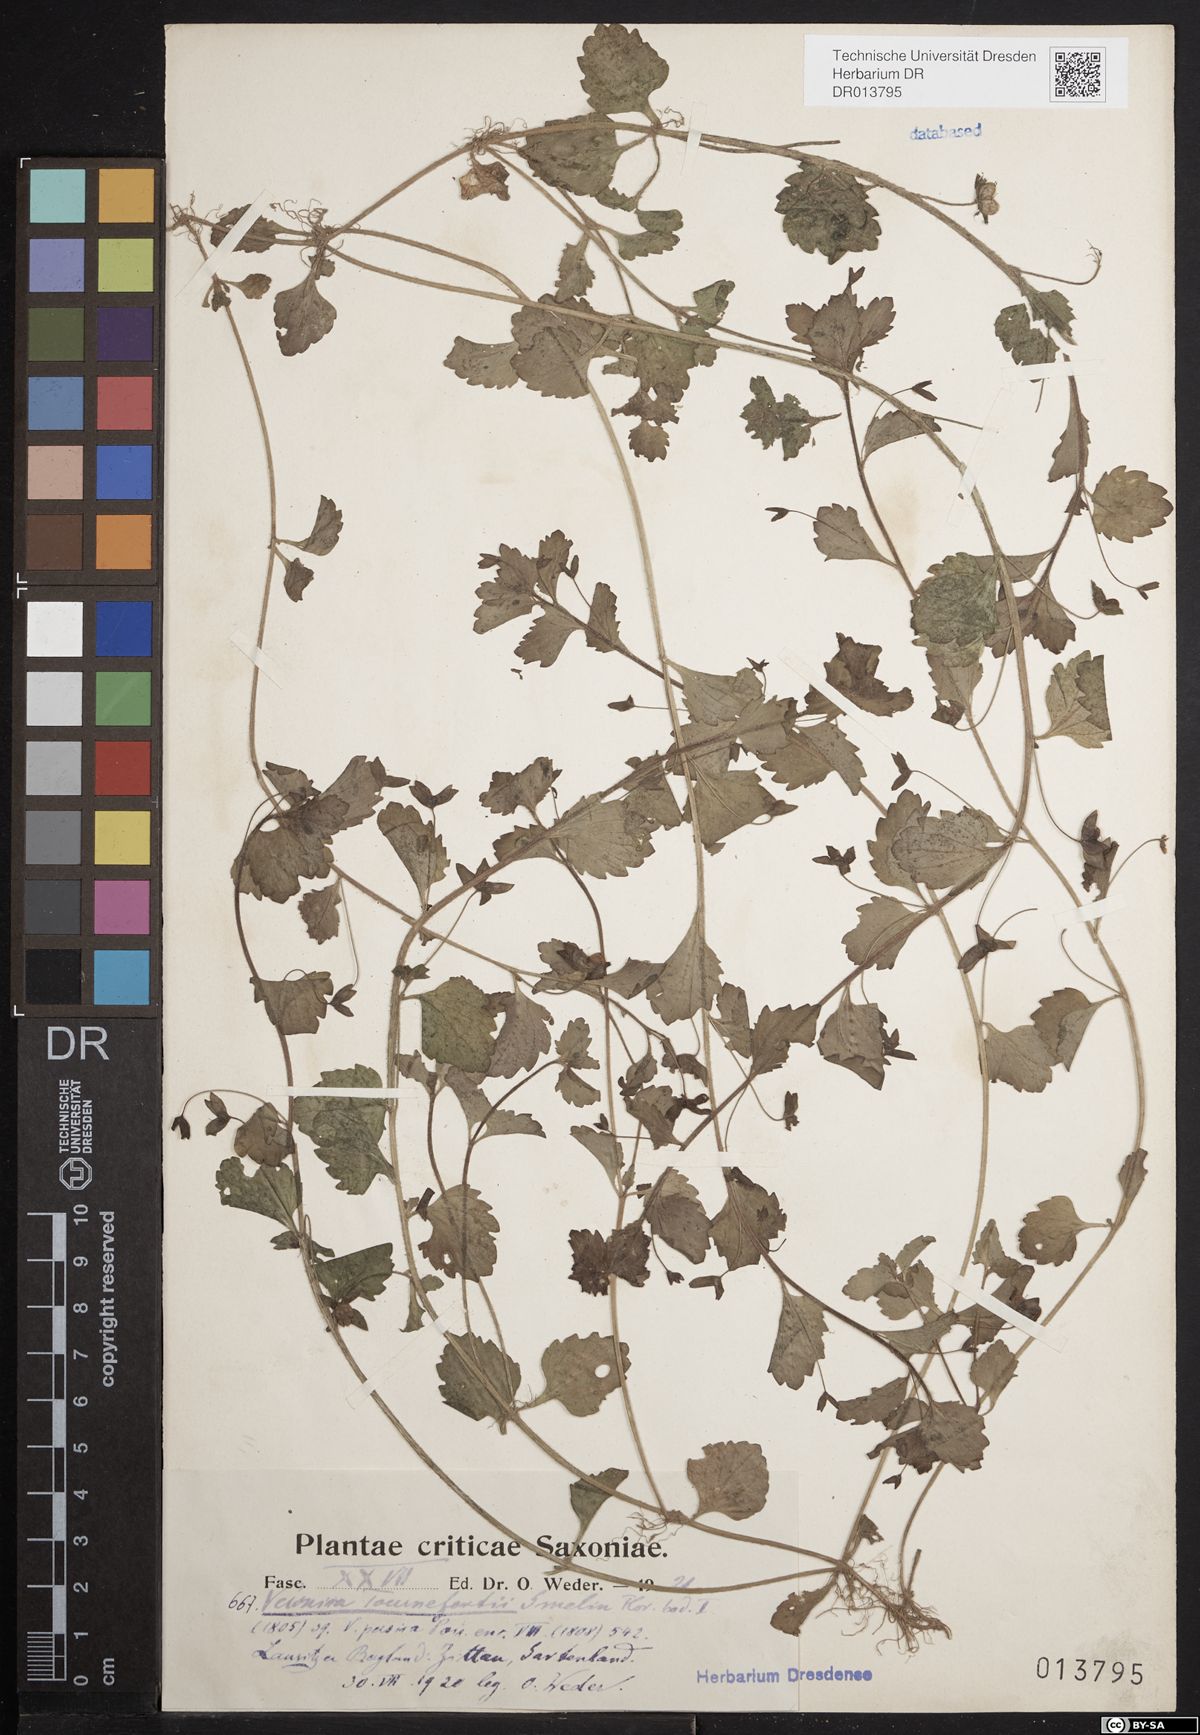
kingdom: Plantae
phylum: Tracheophyta
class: Magnoliopsida
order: Lamiales
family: Plantaginaceae
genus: Veronica
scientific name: Veronica persica
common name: Common field-speedwell
